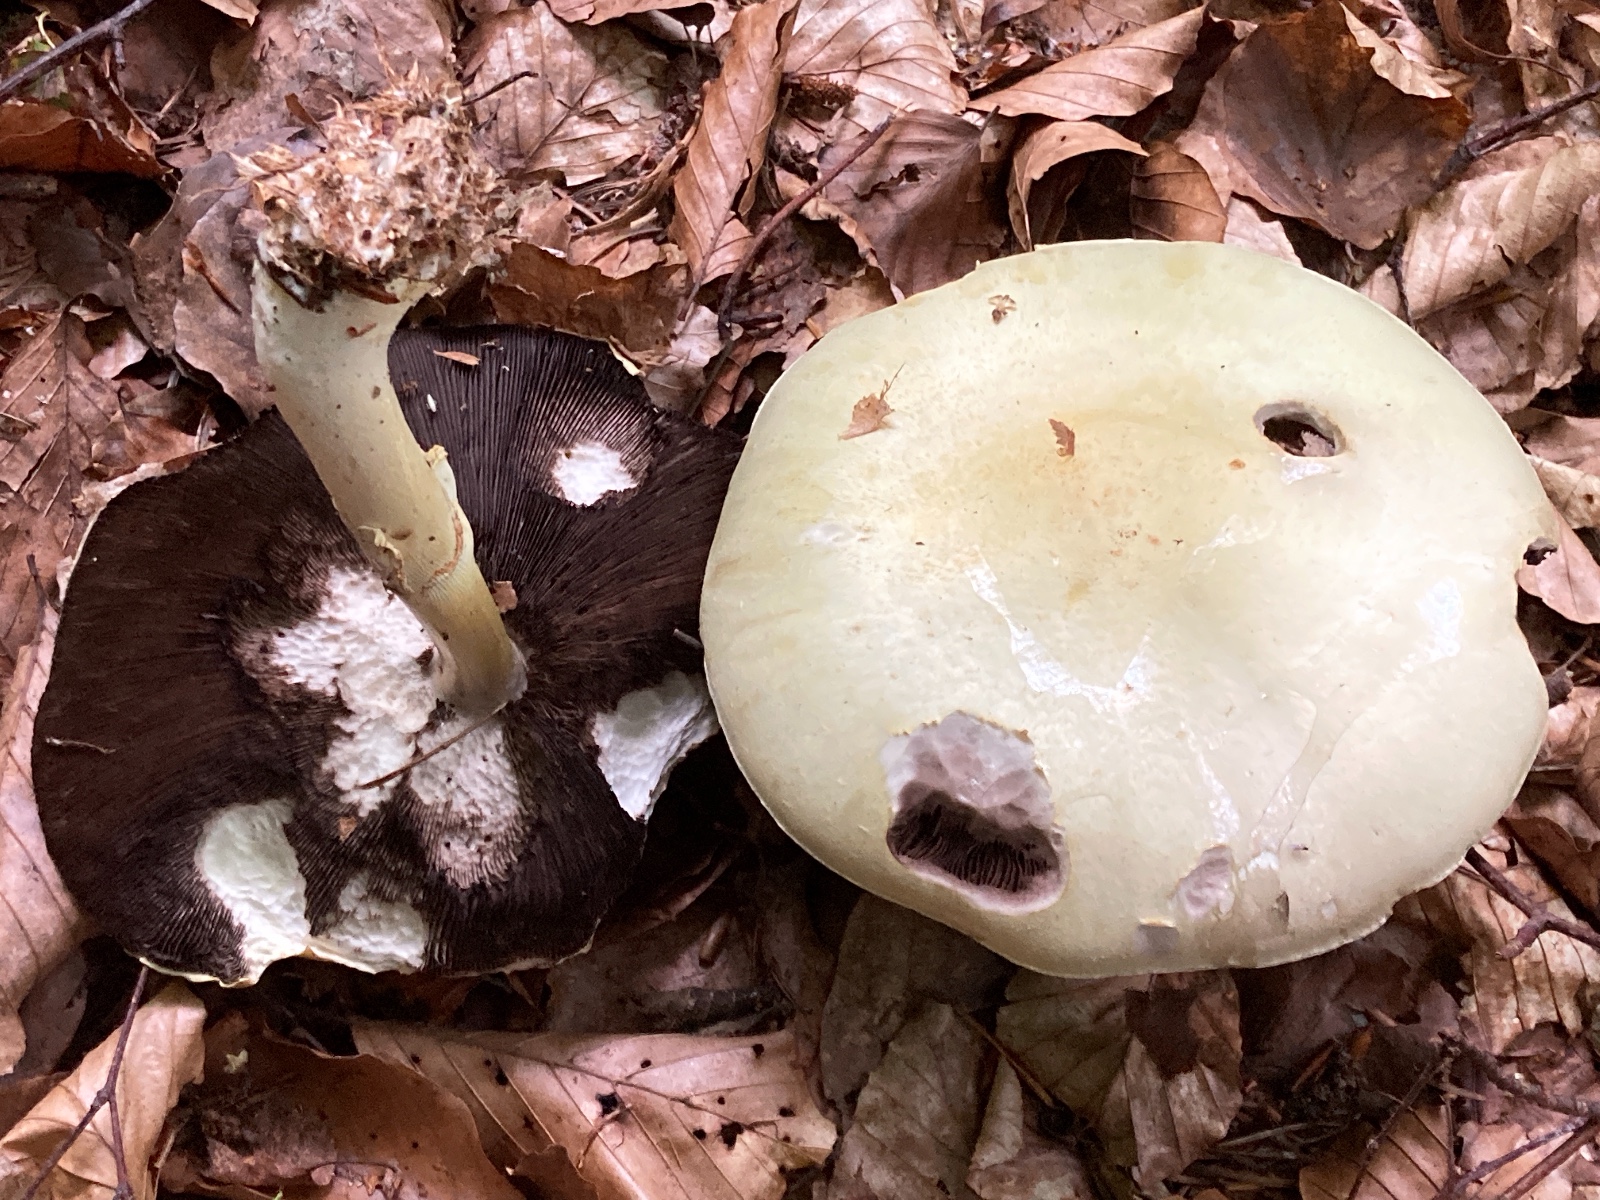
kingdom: Fungi
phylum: Basidiomycota
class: Agaricomycetes
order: Agaricales
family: Agaricaceae
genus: Agaricus
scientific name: Agaricus sylvicola
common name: gulhvid champignon
